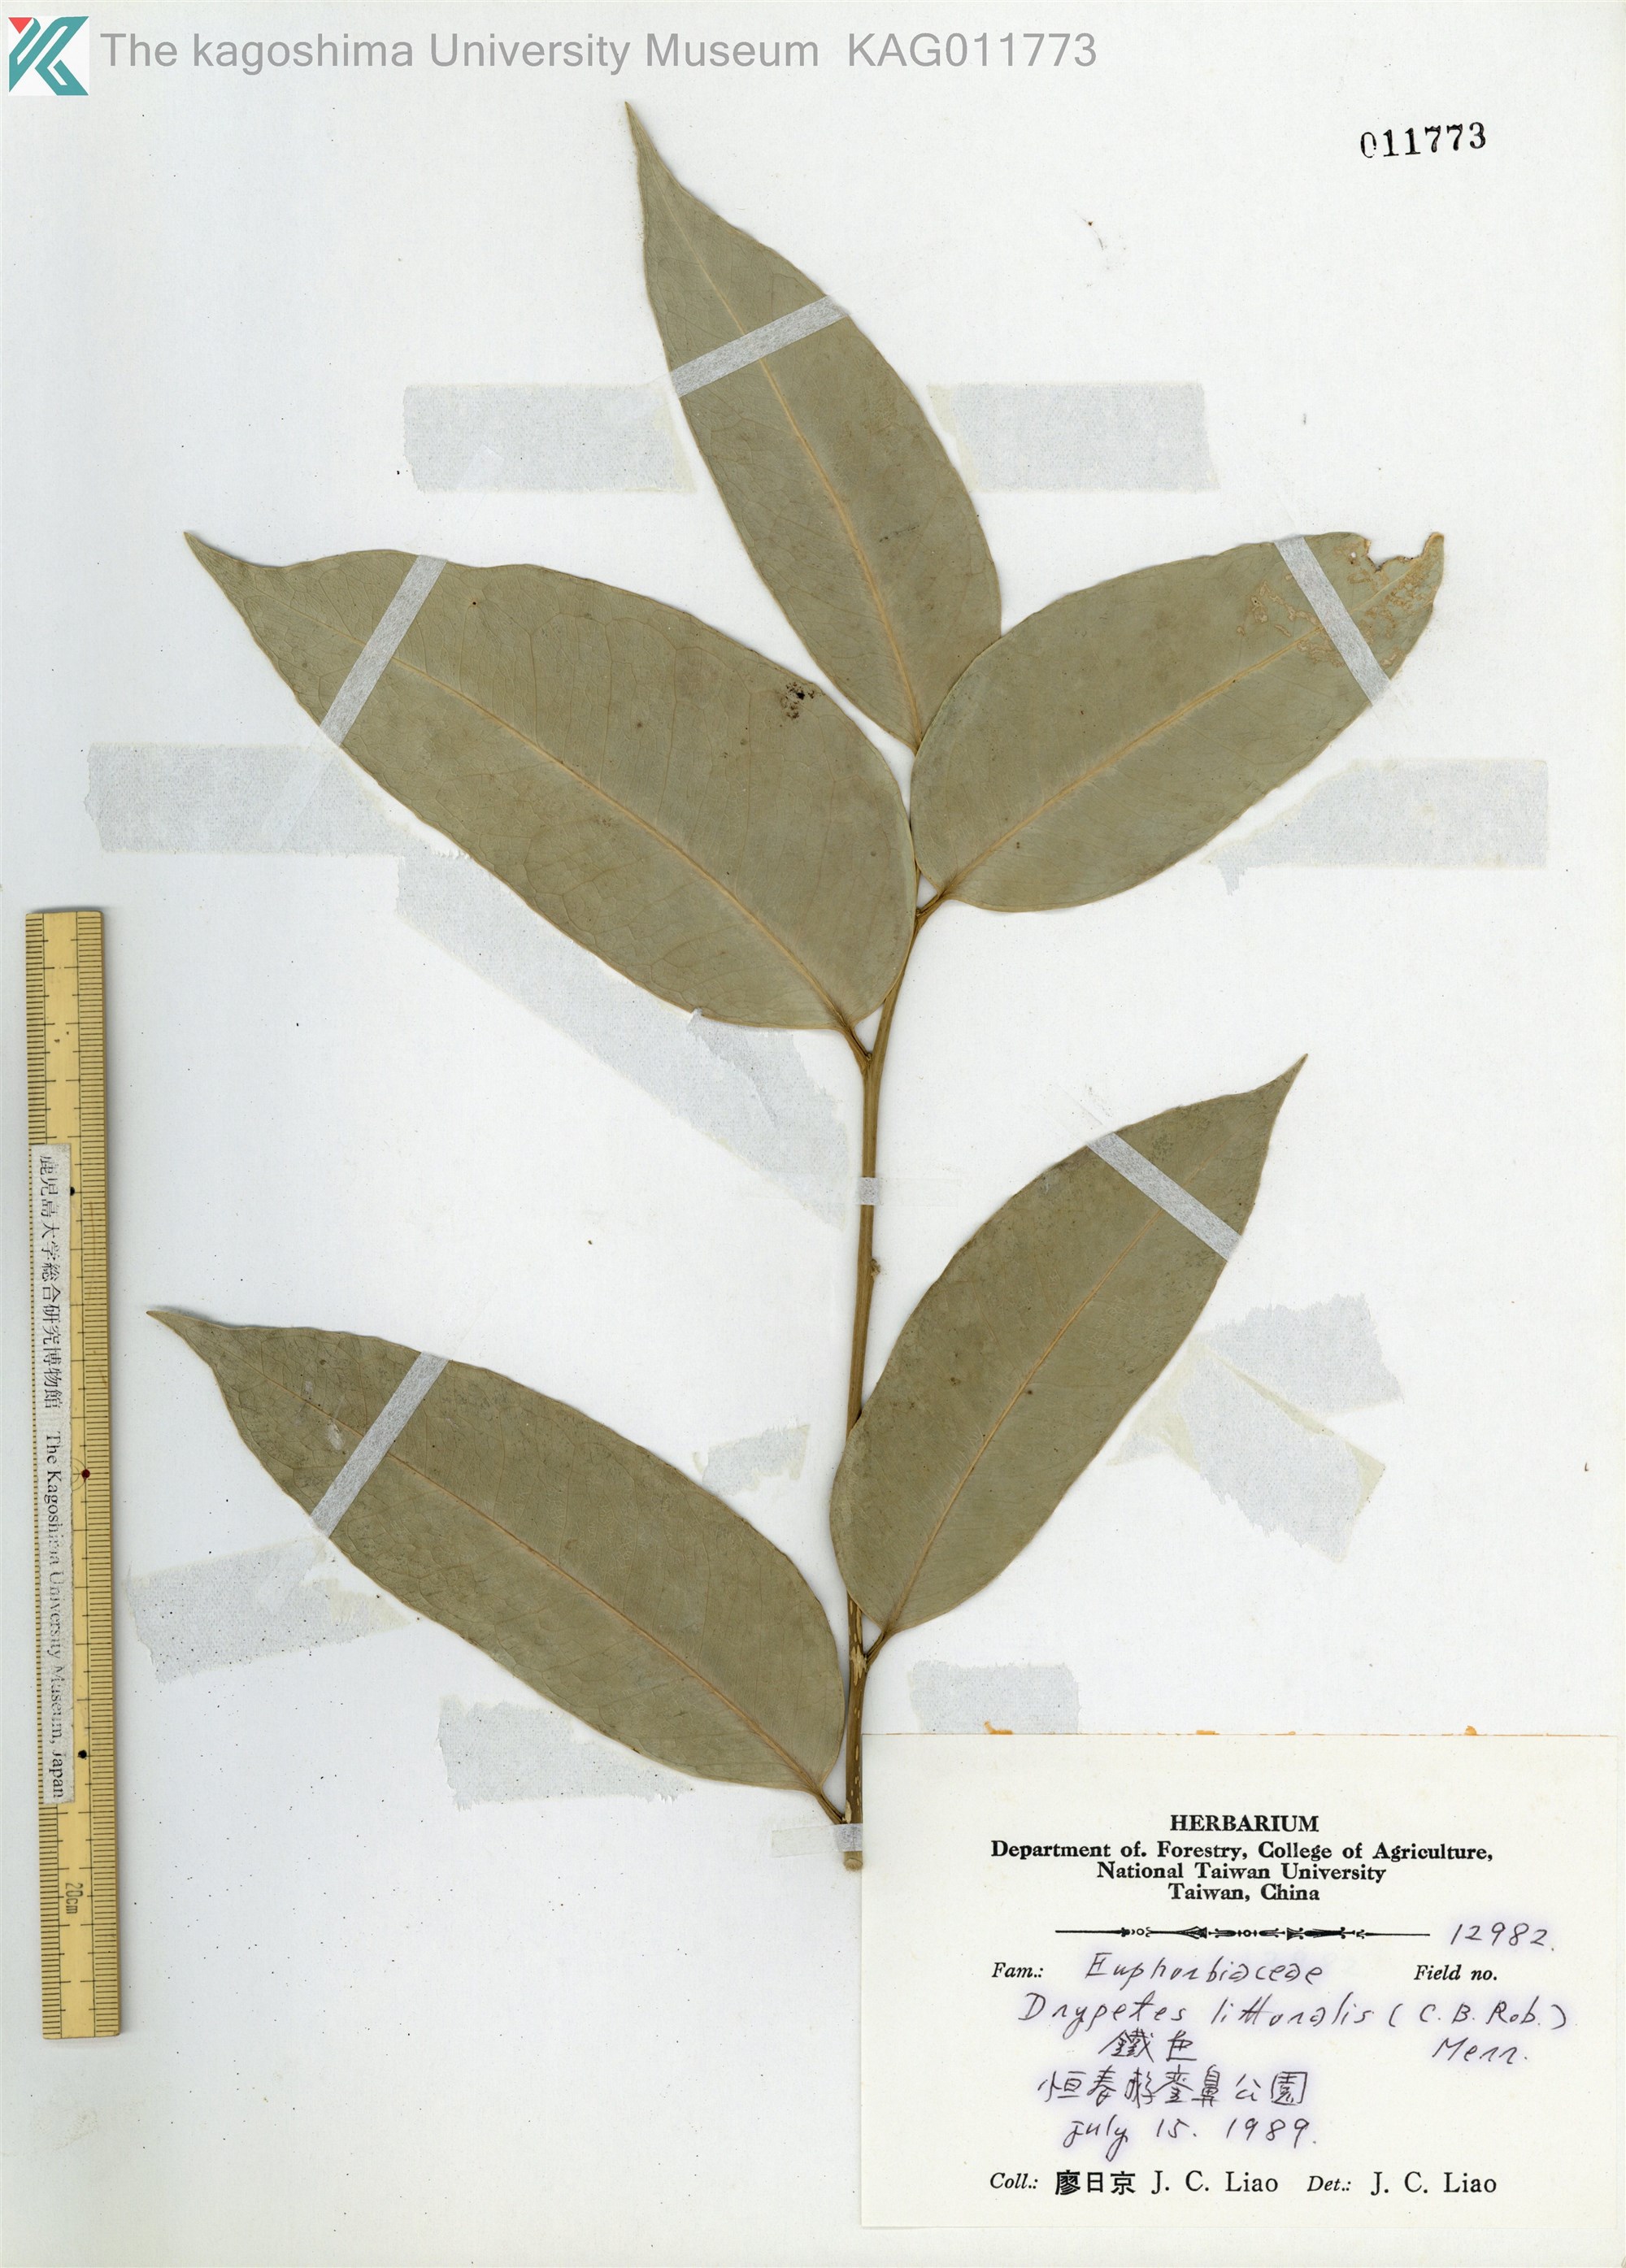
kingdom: Plantae
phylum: Tracheophyta
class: Magnoliopsida
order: Malpighiales
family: Putranjivaceae
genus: Drypetes
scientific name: Drypetes littoralis
